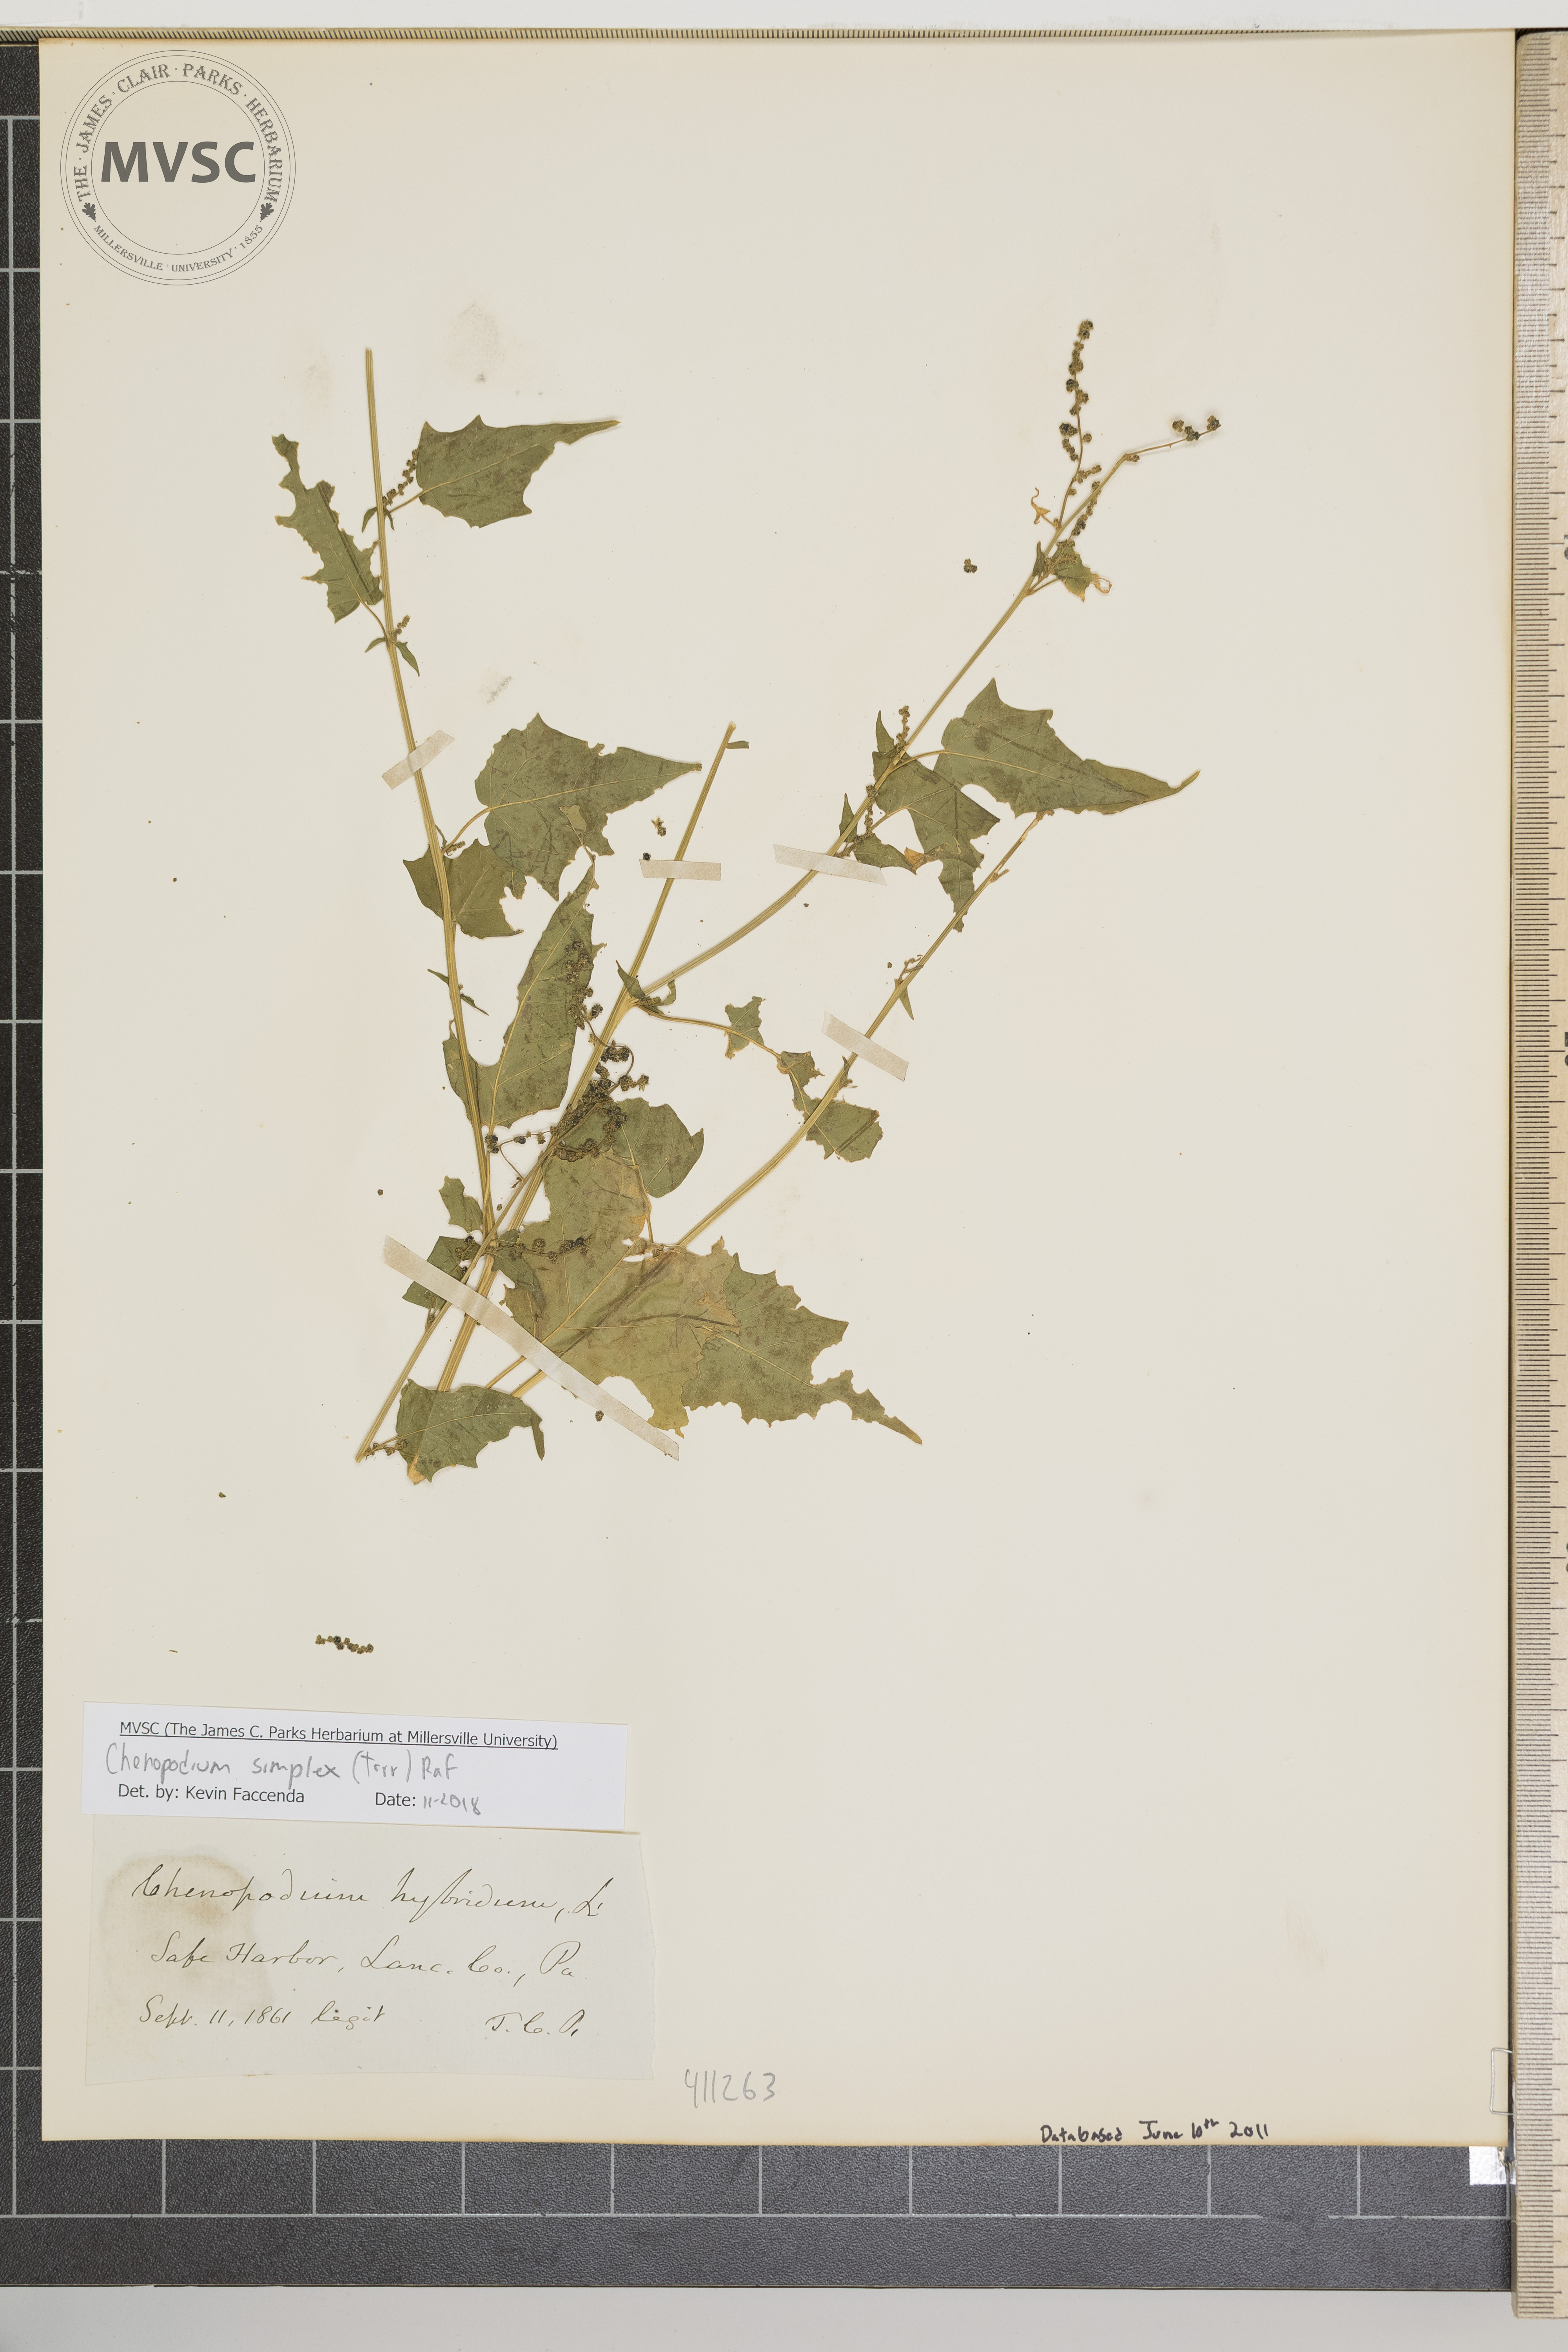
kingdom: Plantae
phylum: Tracheophyta
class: Magnoliopsida
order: Caryophyllales
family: Amaranthaceae
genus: Chenopodiastrum
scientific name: Chenopodiastrum hybridum
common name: Mapleleaf goosefoot
